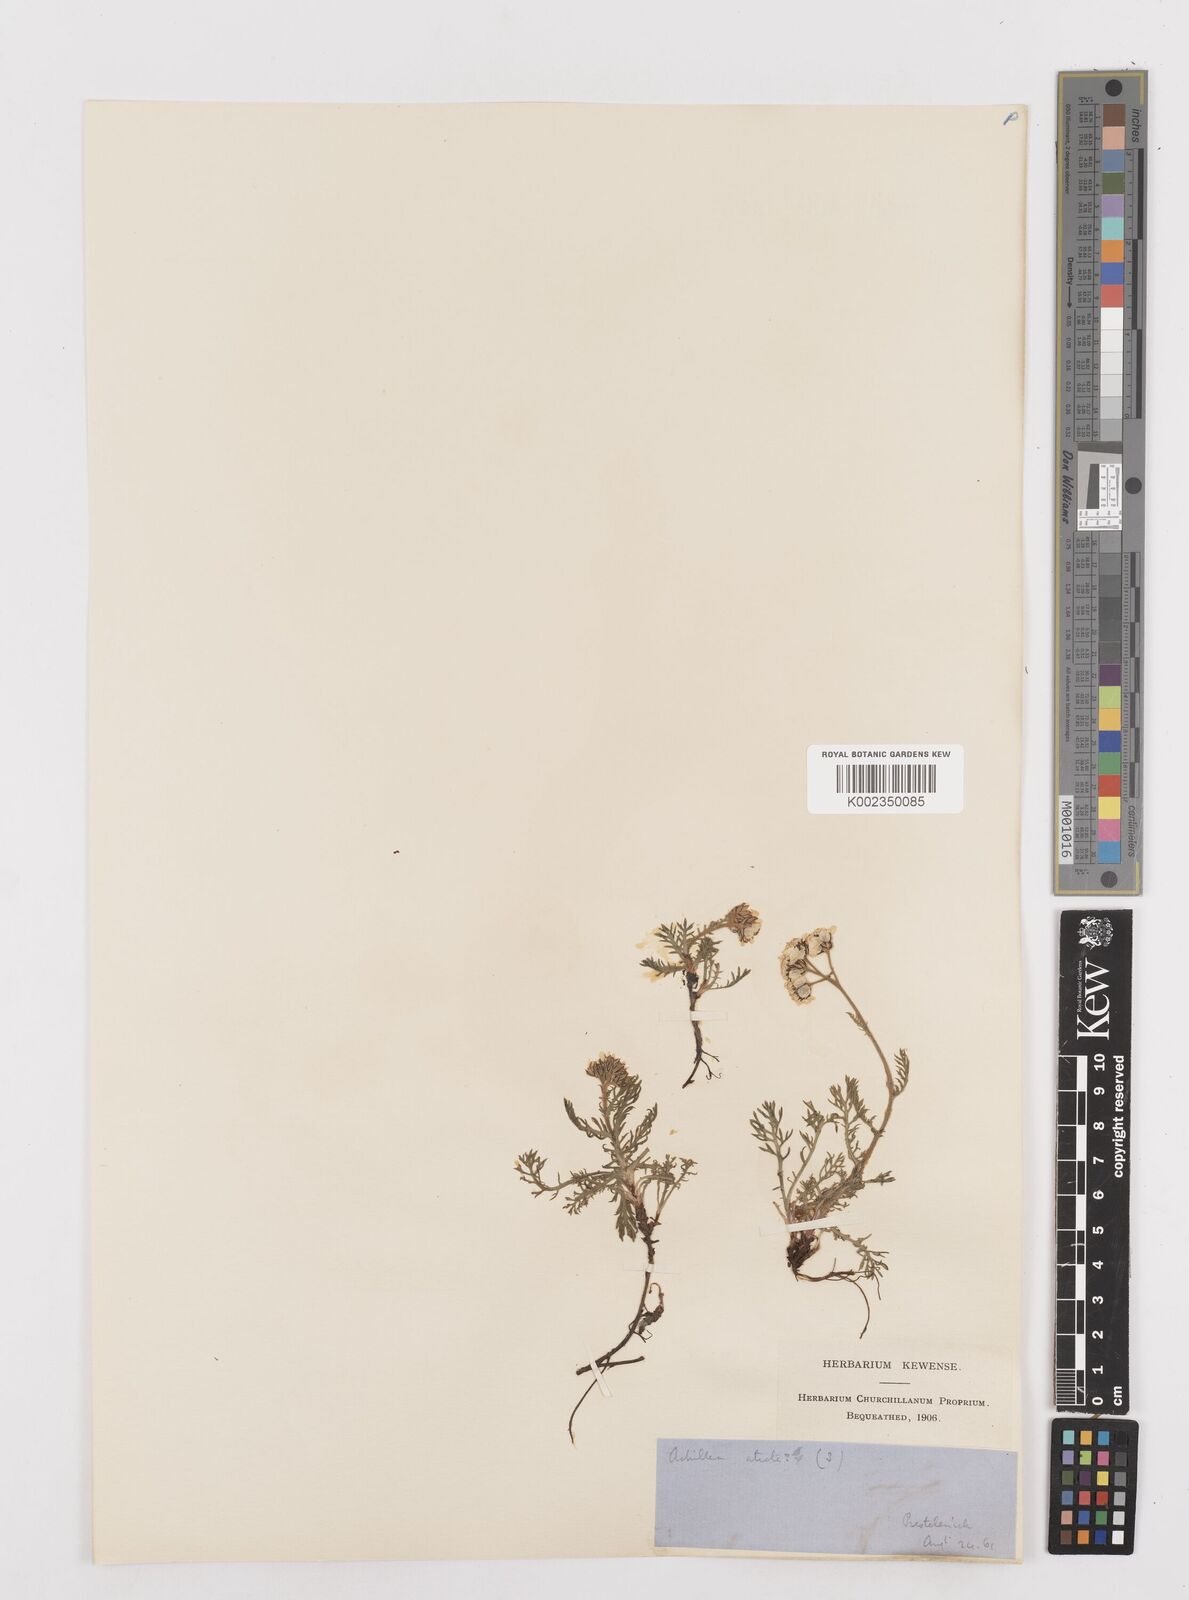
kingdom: Plantae
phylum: Tracheophyta
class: Magnoliopsida
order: Asterales
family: Asteraceae
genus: Achillea
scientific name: Achillea atrata
